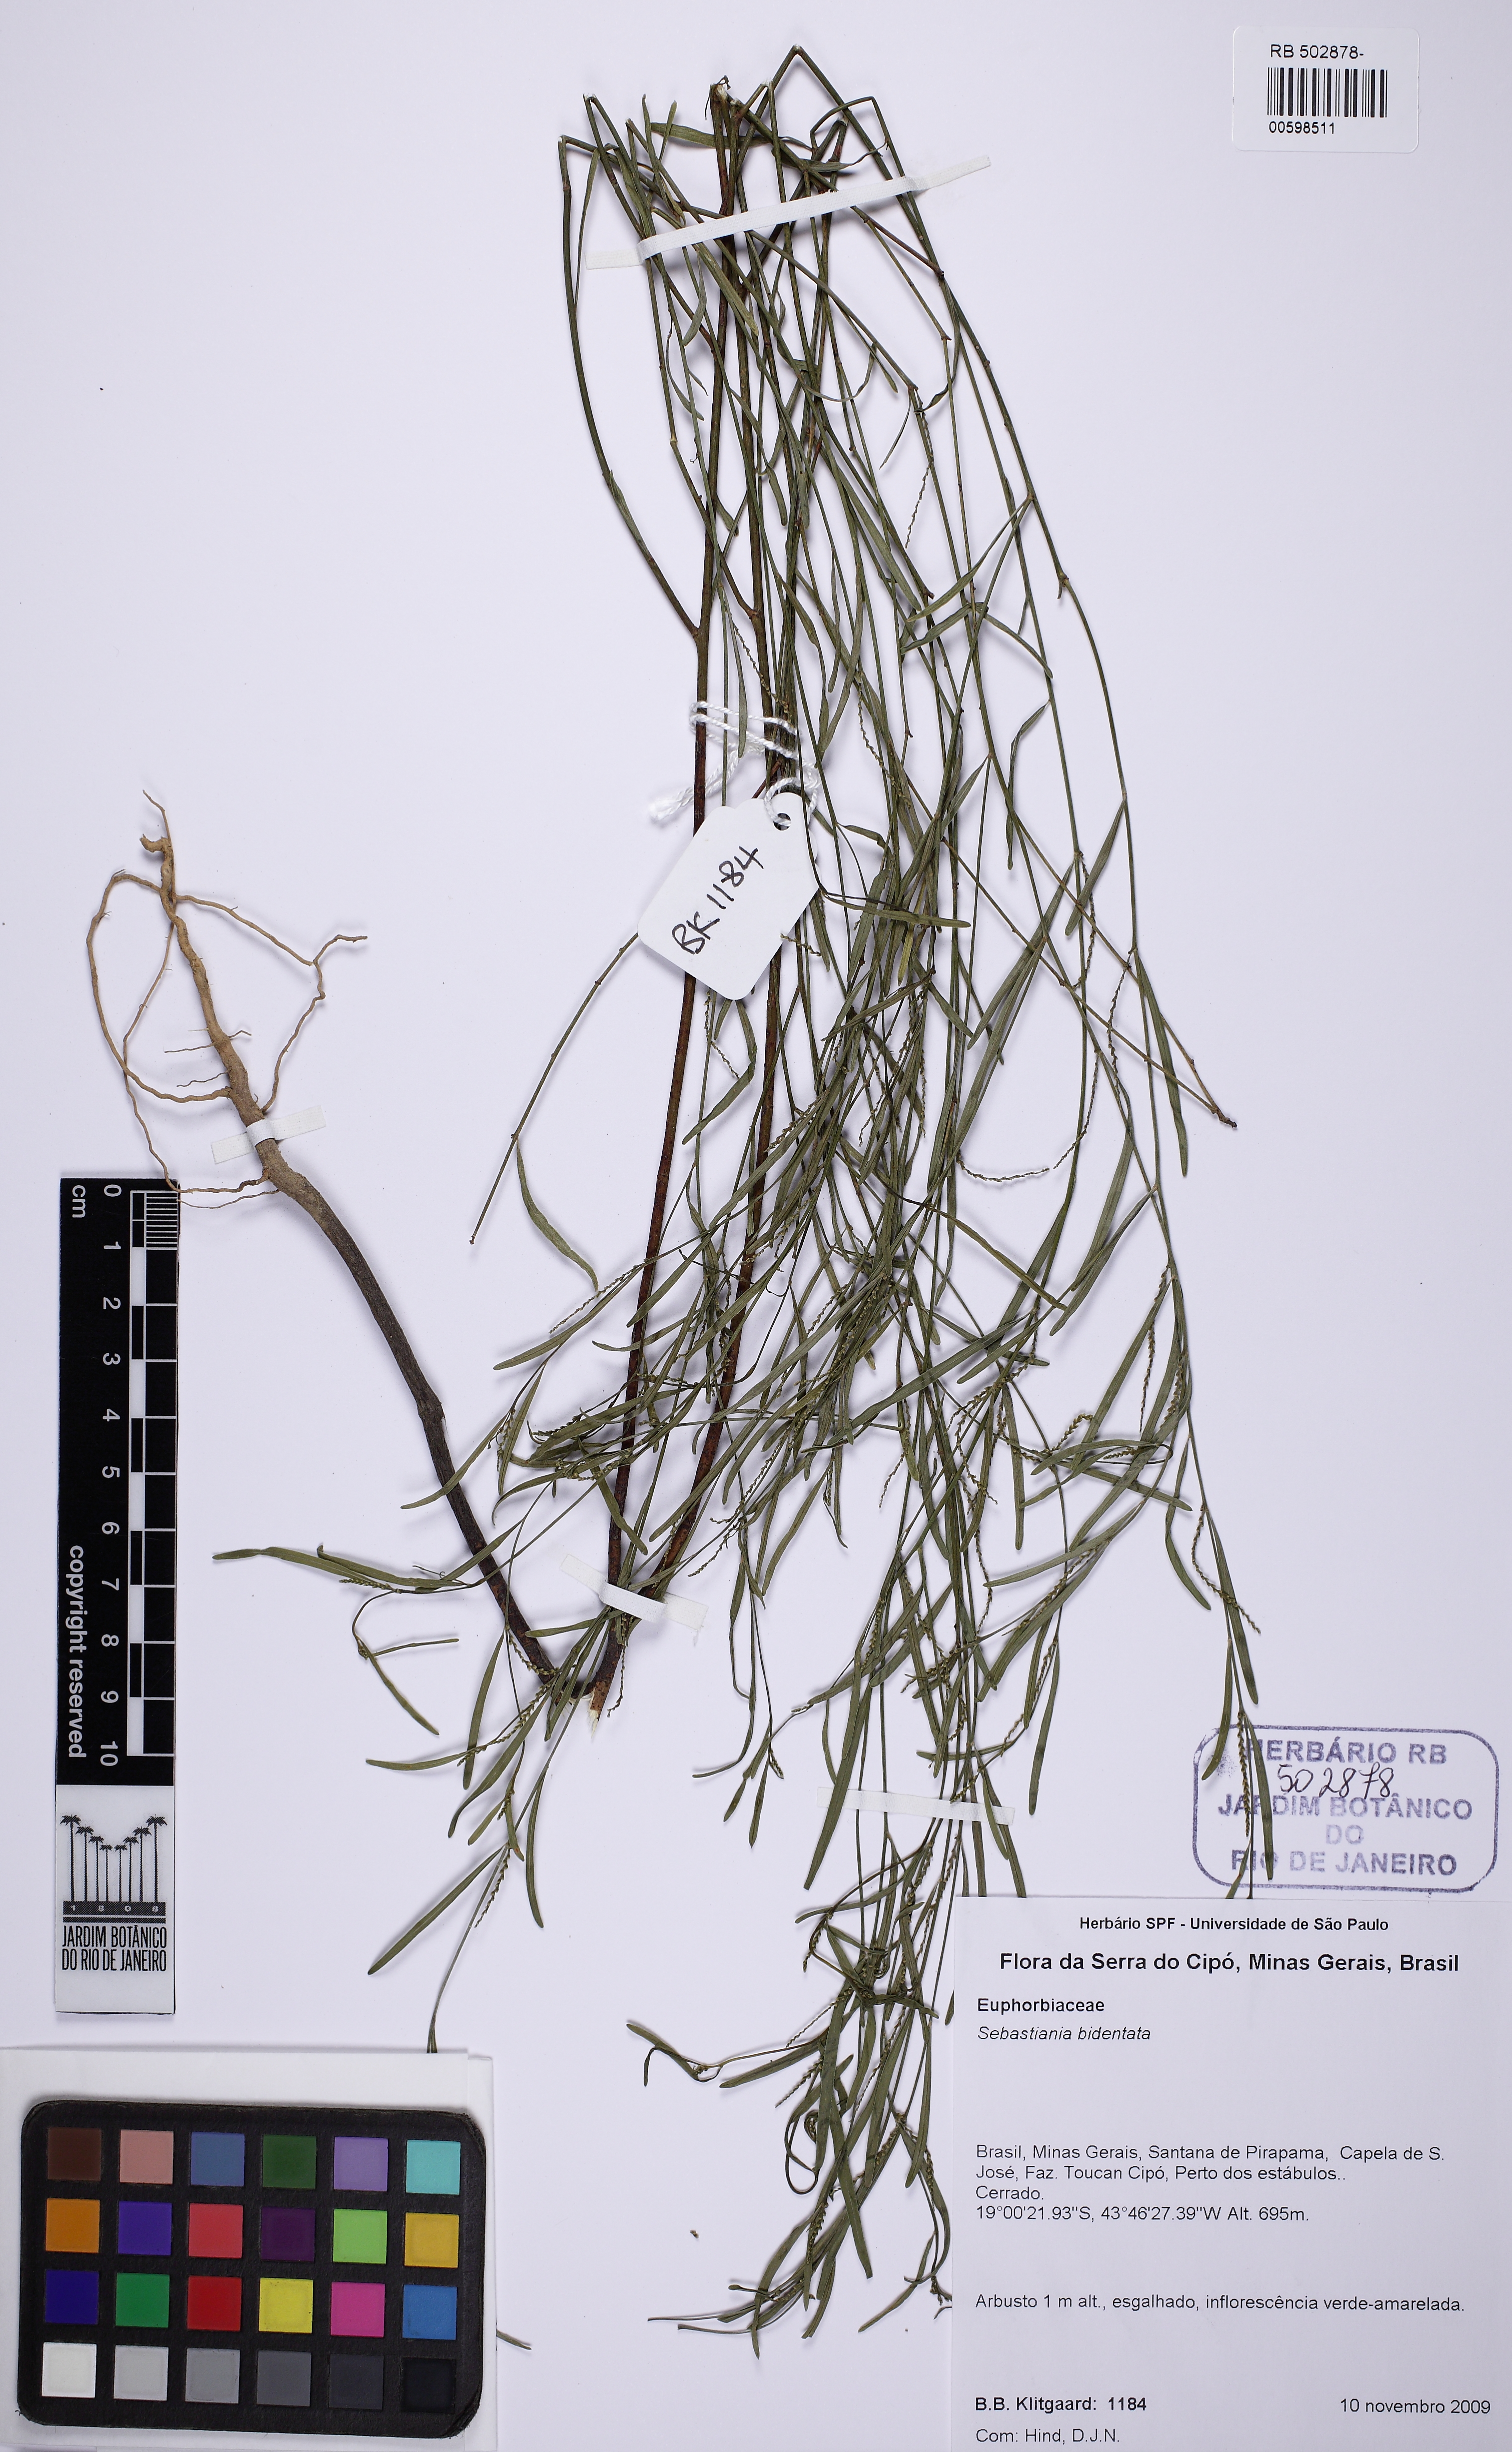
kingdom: Plantae
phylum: Tracheophyta
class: Magnoliopsida
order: Malpighiales
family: Euphorbiaceae
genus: Microstachys
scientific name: Microstachys bidentata
